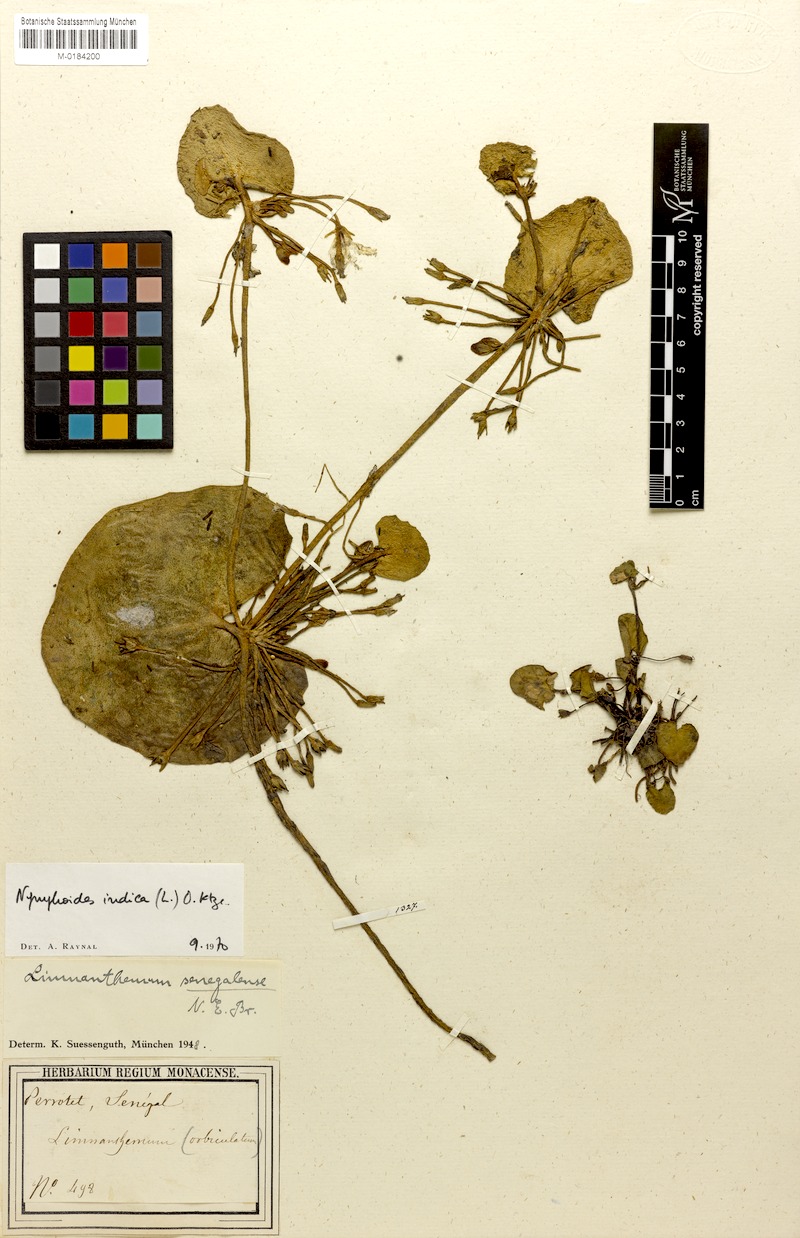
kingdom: Plantae
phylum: Tracheophyta
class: Magnoliopsida
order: Asterales
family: Menyanthaceae
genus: Nymphoides
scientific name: Nymphoides indica
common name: Water-snowflake
